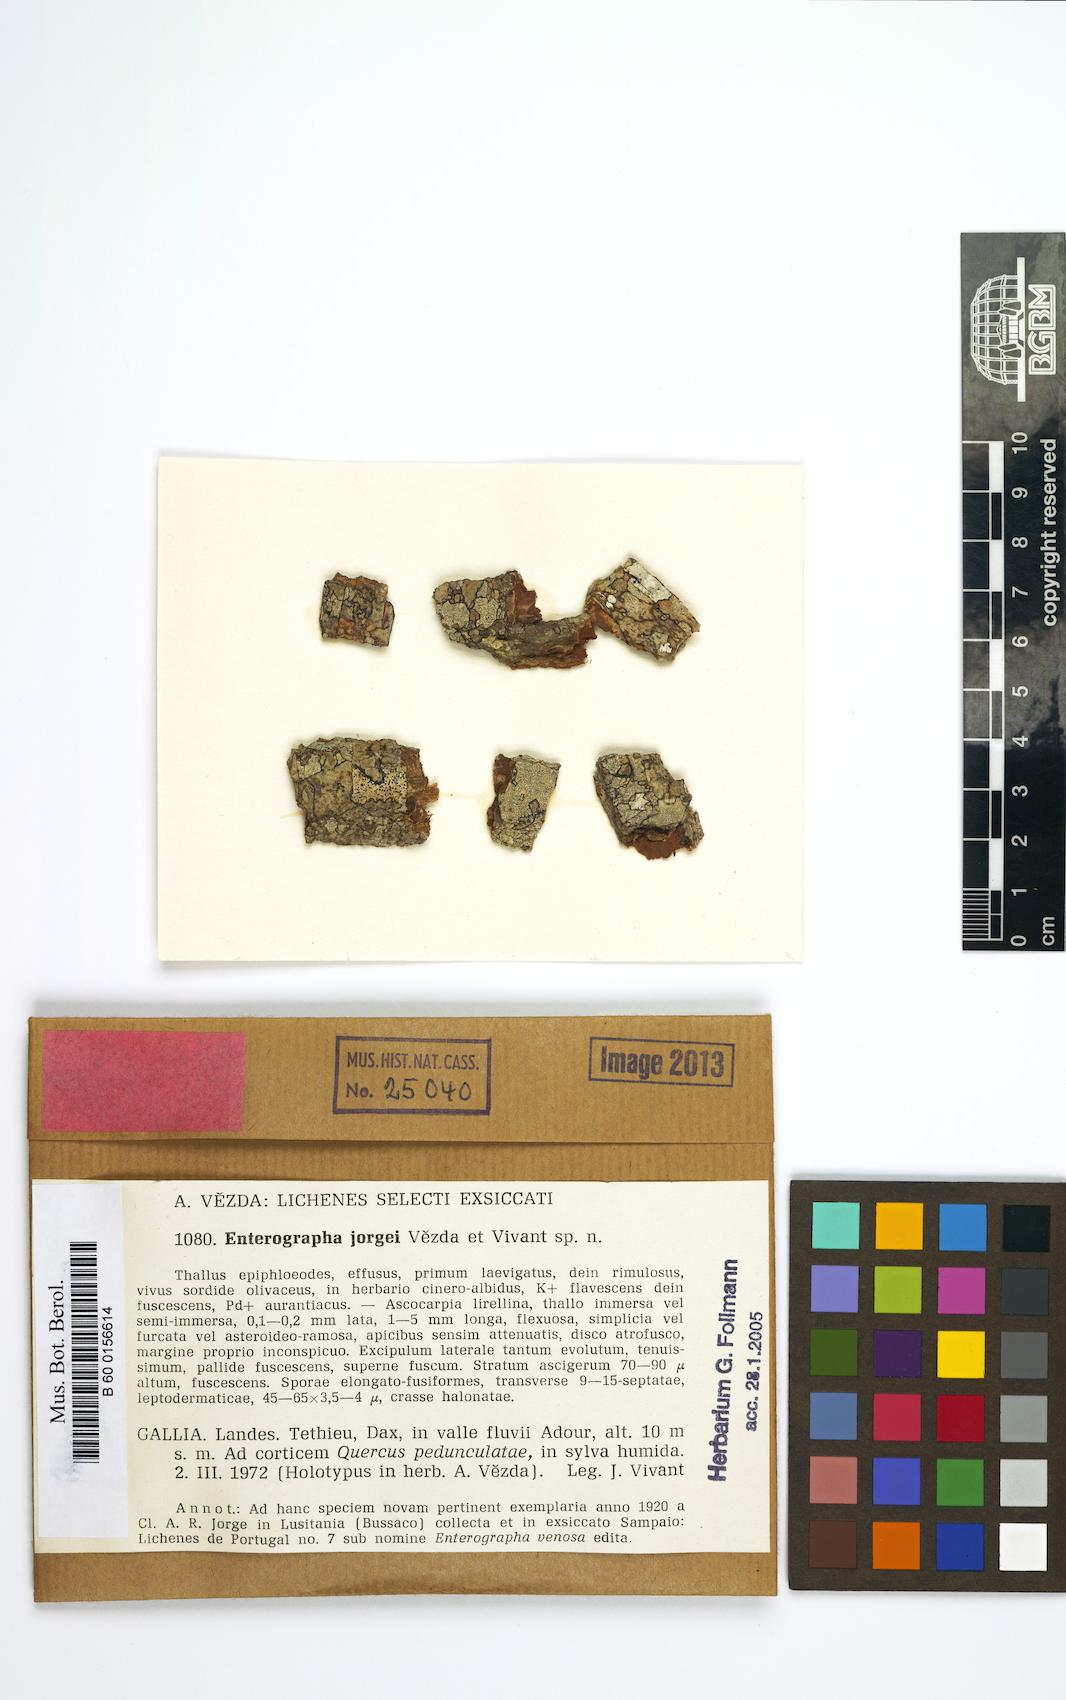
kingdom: Fungi
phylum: Ascomycota
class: Arthoniomycetes
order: Arthoniales
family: Roccellaceae
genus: Enterographa
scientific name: Enterographa elaborata
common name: New forest beech-lichen
